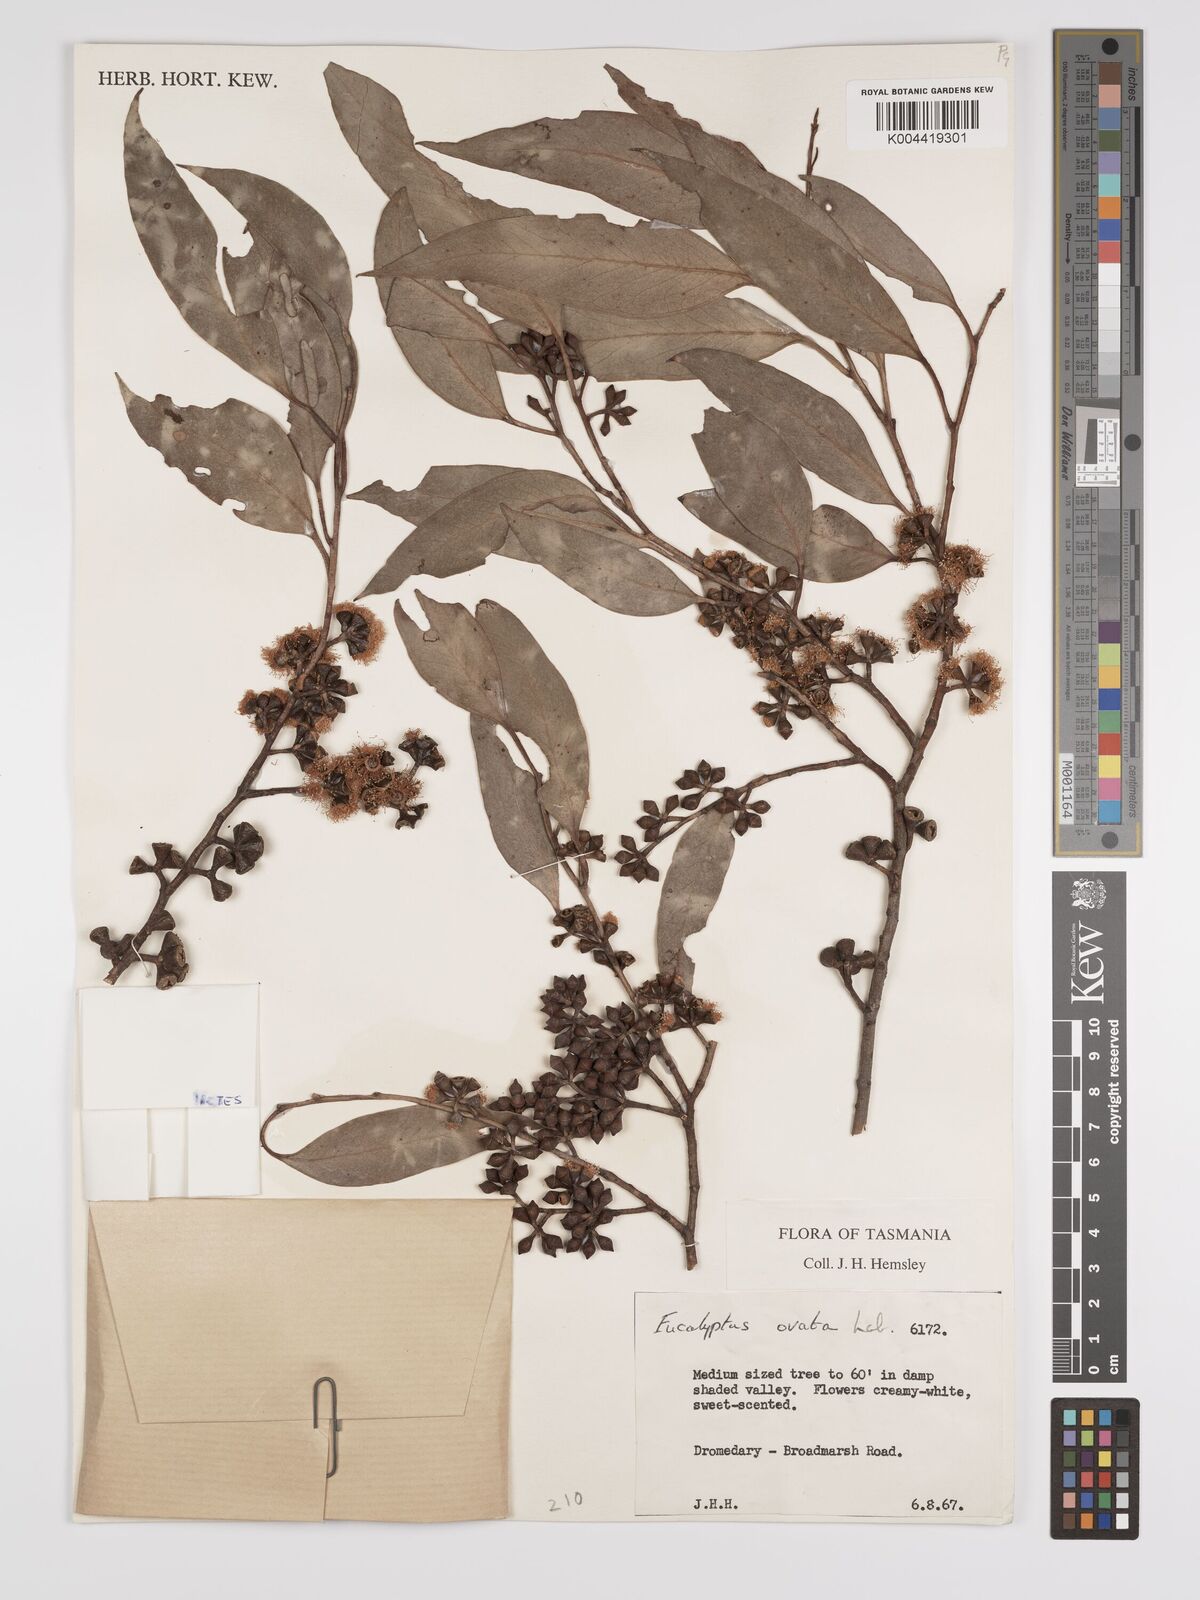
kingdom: Plantae
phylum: Tracheophyta
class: Magnoliopsida
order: Myrtales
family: Myrtaceae
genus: Eucalyptus
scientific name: Eucalyptus ovata
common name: Black-gum
